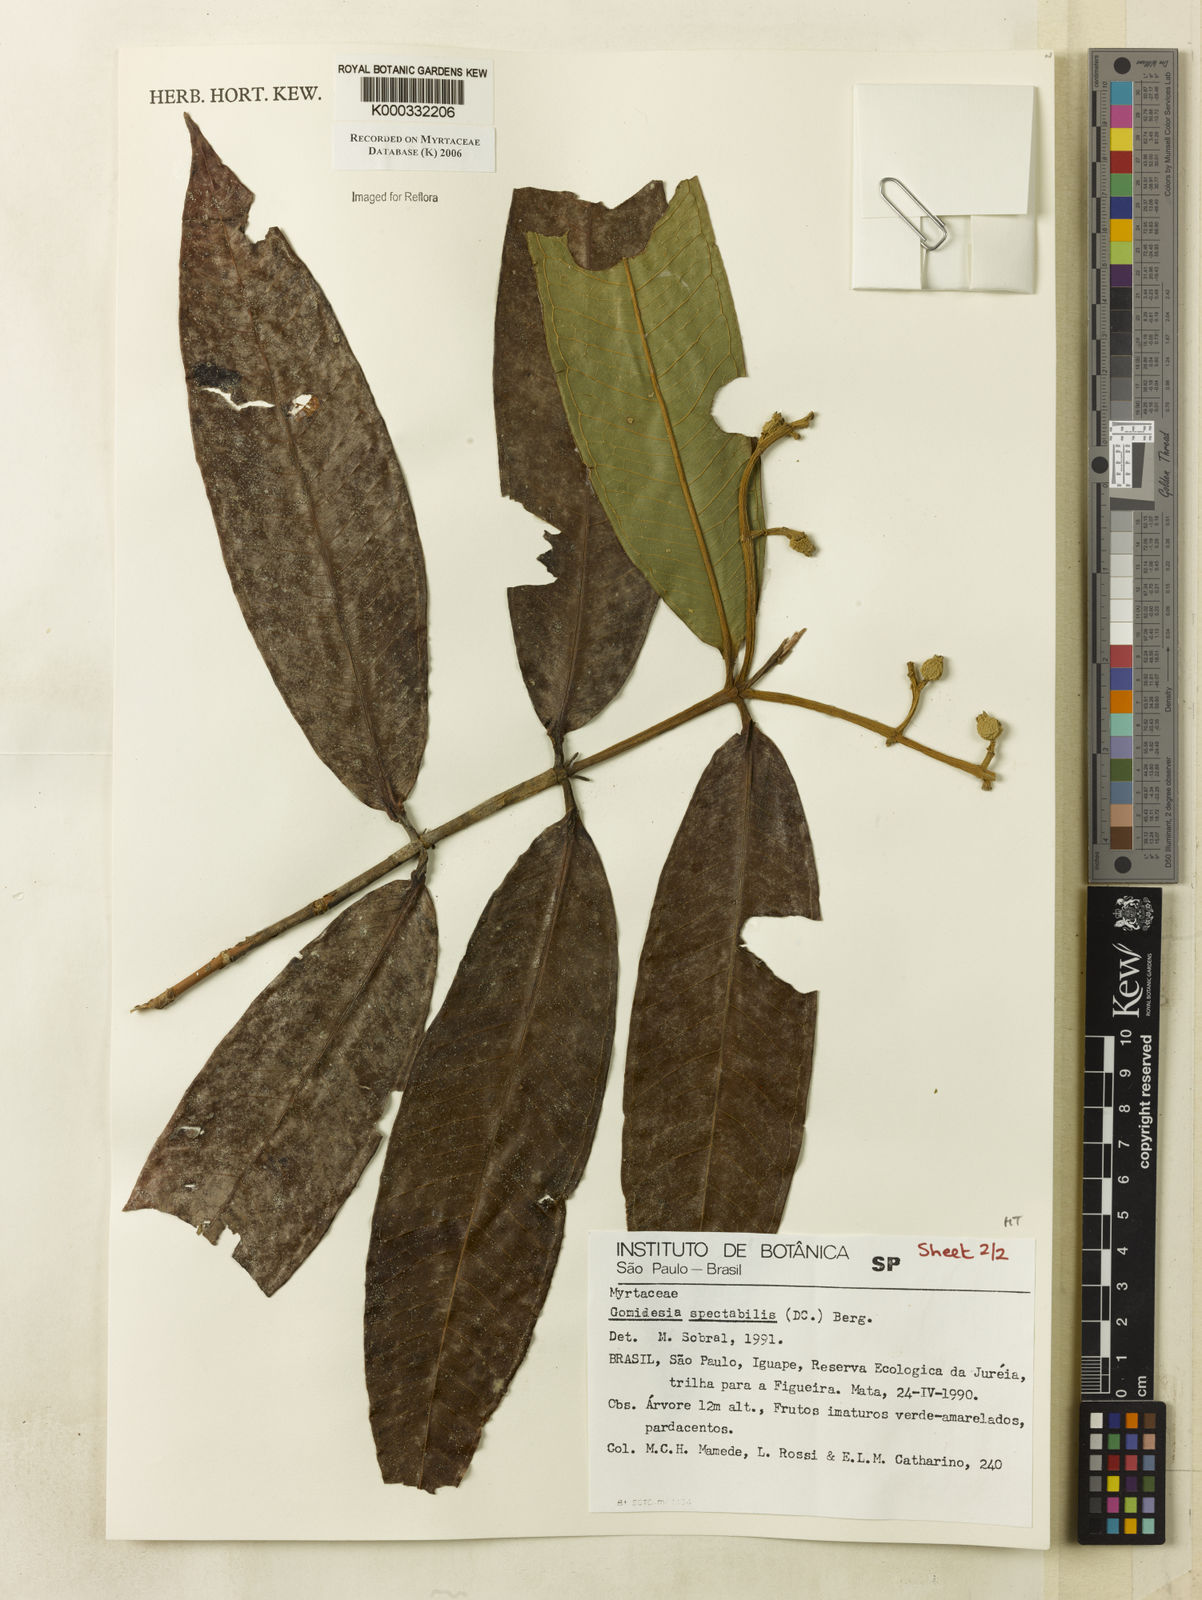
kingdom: Plantae
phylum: Tracheophyta
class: Magnoliopsida
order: Myrtales
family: Myrtaceae
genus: Myrcia
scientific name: Myrcia spectabilis
